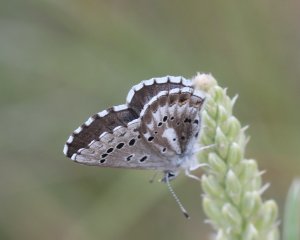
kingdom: Animalia
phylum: Arthropoda
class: Insecta
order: Lepidoptera
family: Lycaenidae
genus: Glaucopsyche
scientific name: Glaucopsyche piasus
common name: Arrowhead Blue
